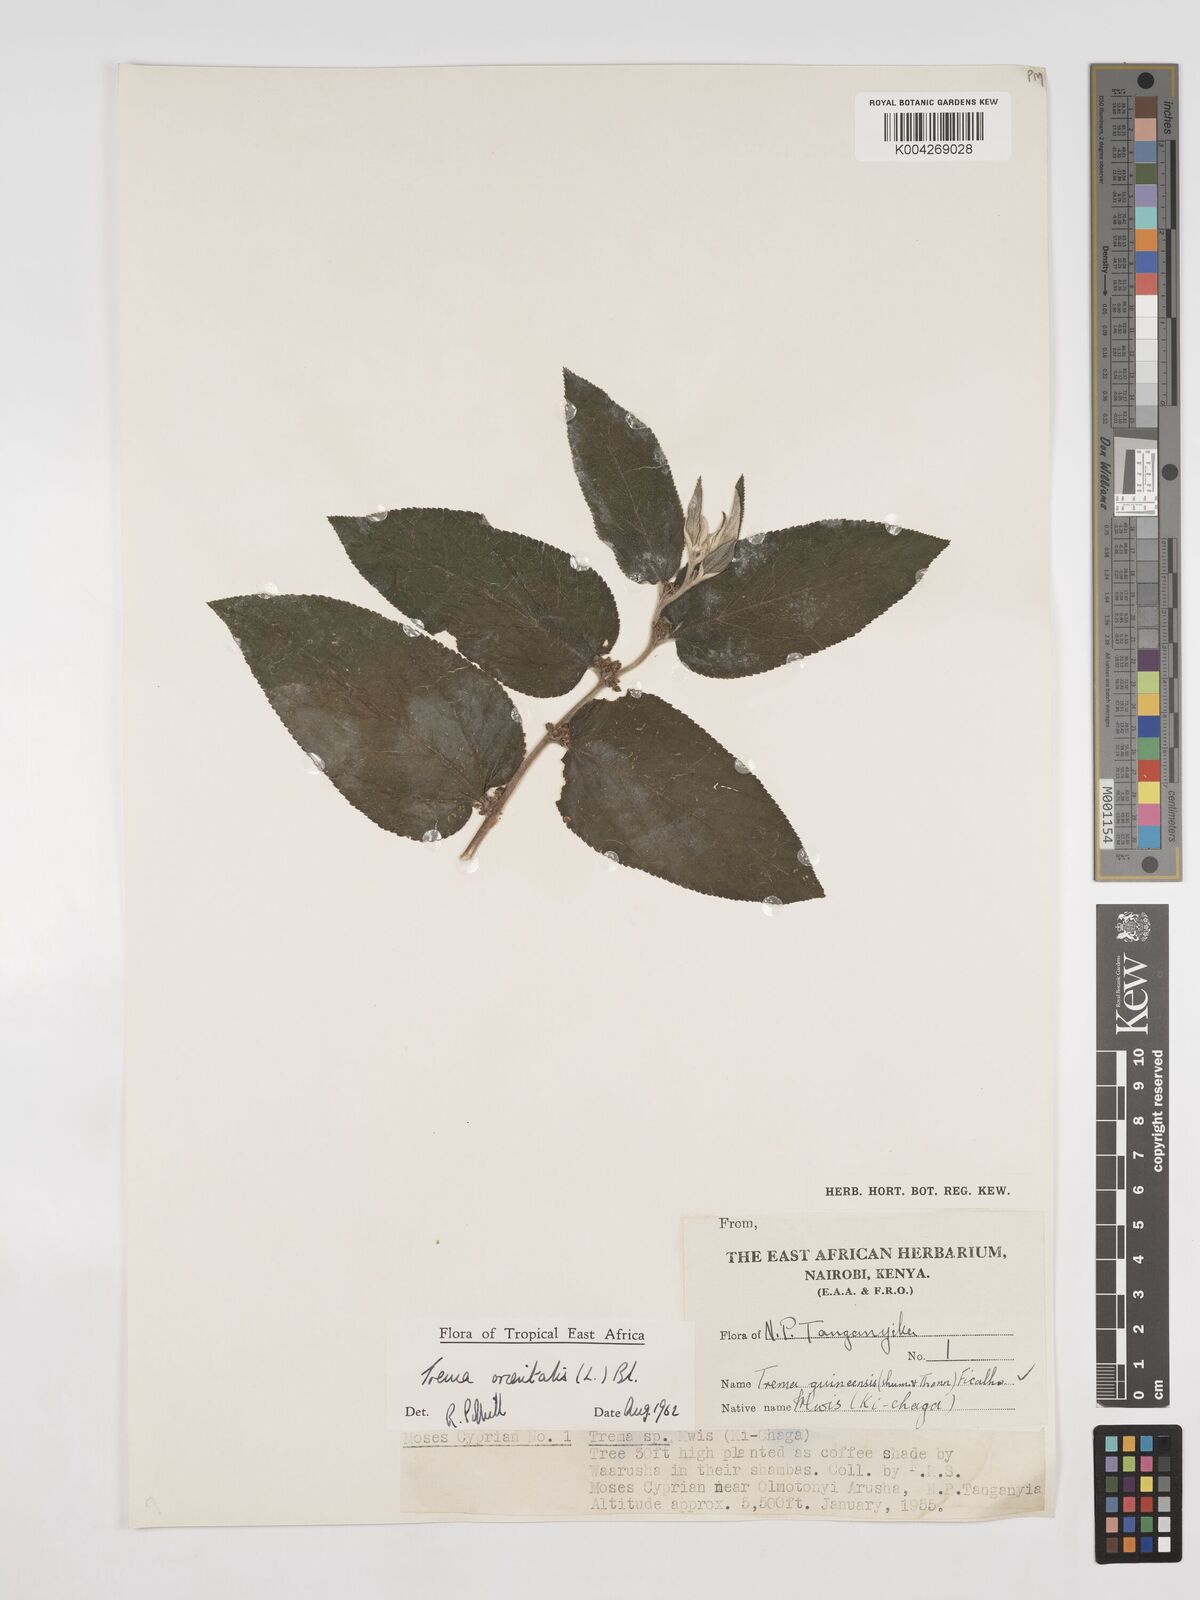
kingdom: Plantae
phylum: Tracheophyta
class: Magnoliopsida
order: Rosales
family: Cannabaceae
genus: Trema
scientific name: Trema orientale
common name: Indian charcoal tree
